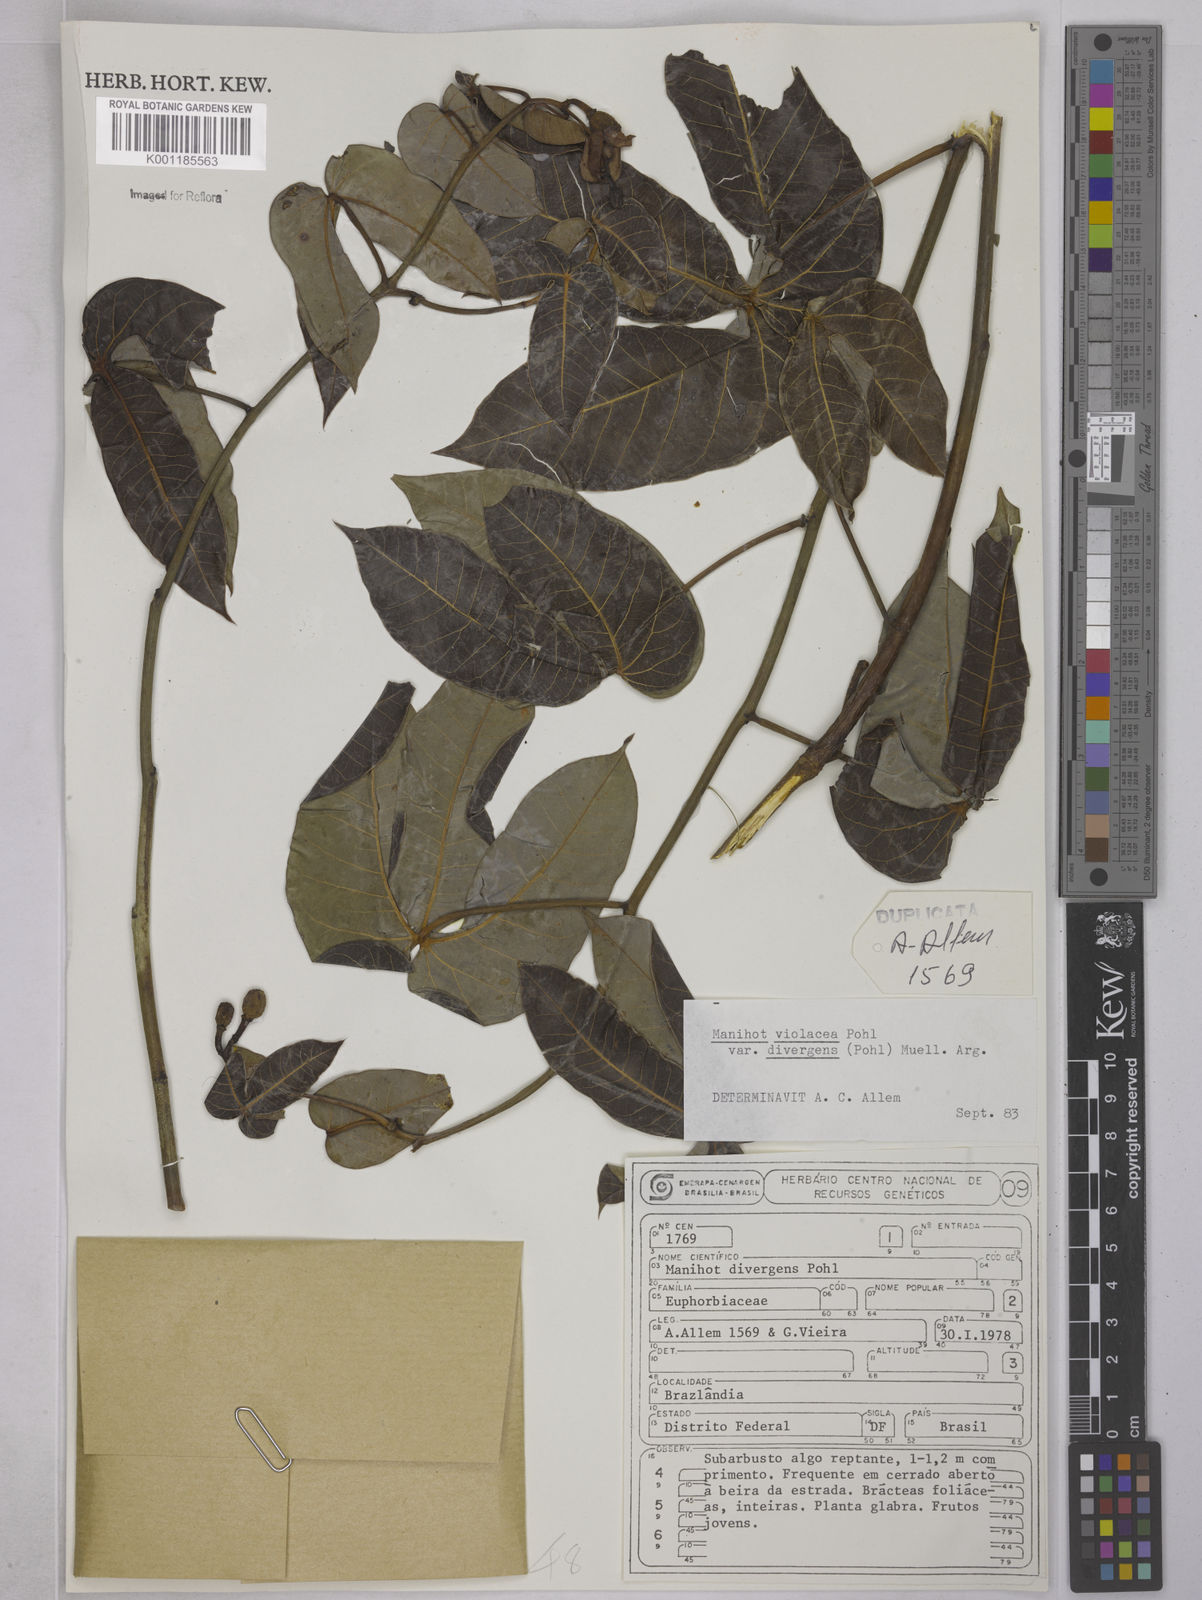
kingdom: Plantae
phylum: Tracheophyta
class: Magnoliopsida
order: Malpighiales
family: Euphorbiaceae
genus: Manihot
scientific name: Manihot divergens
